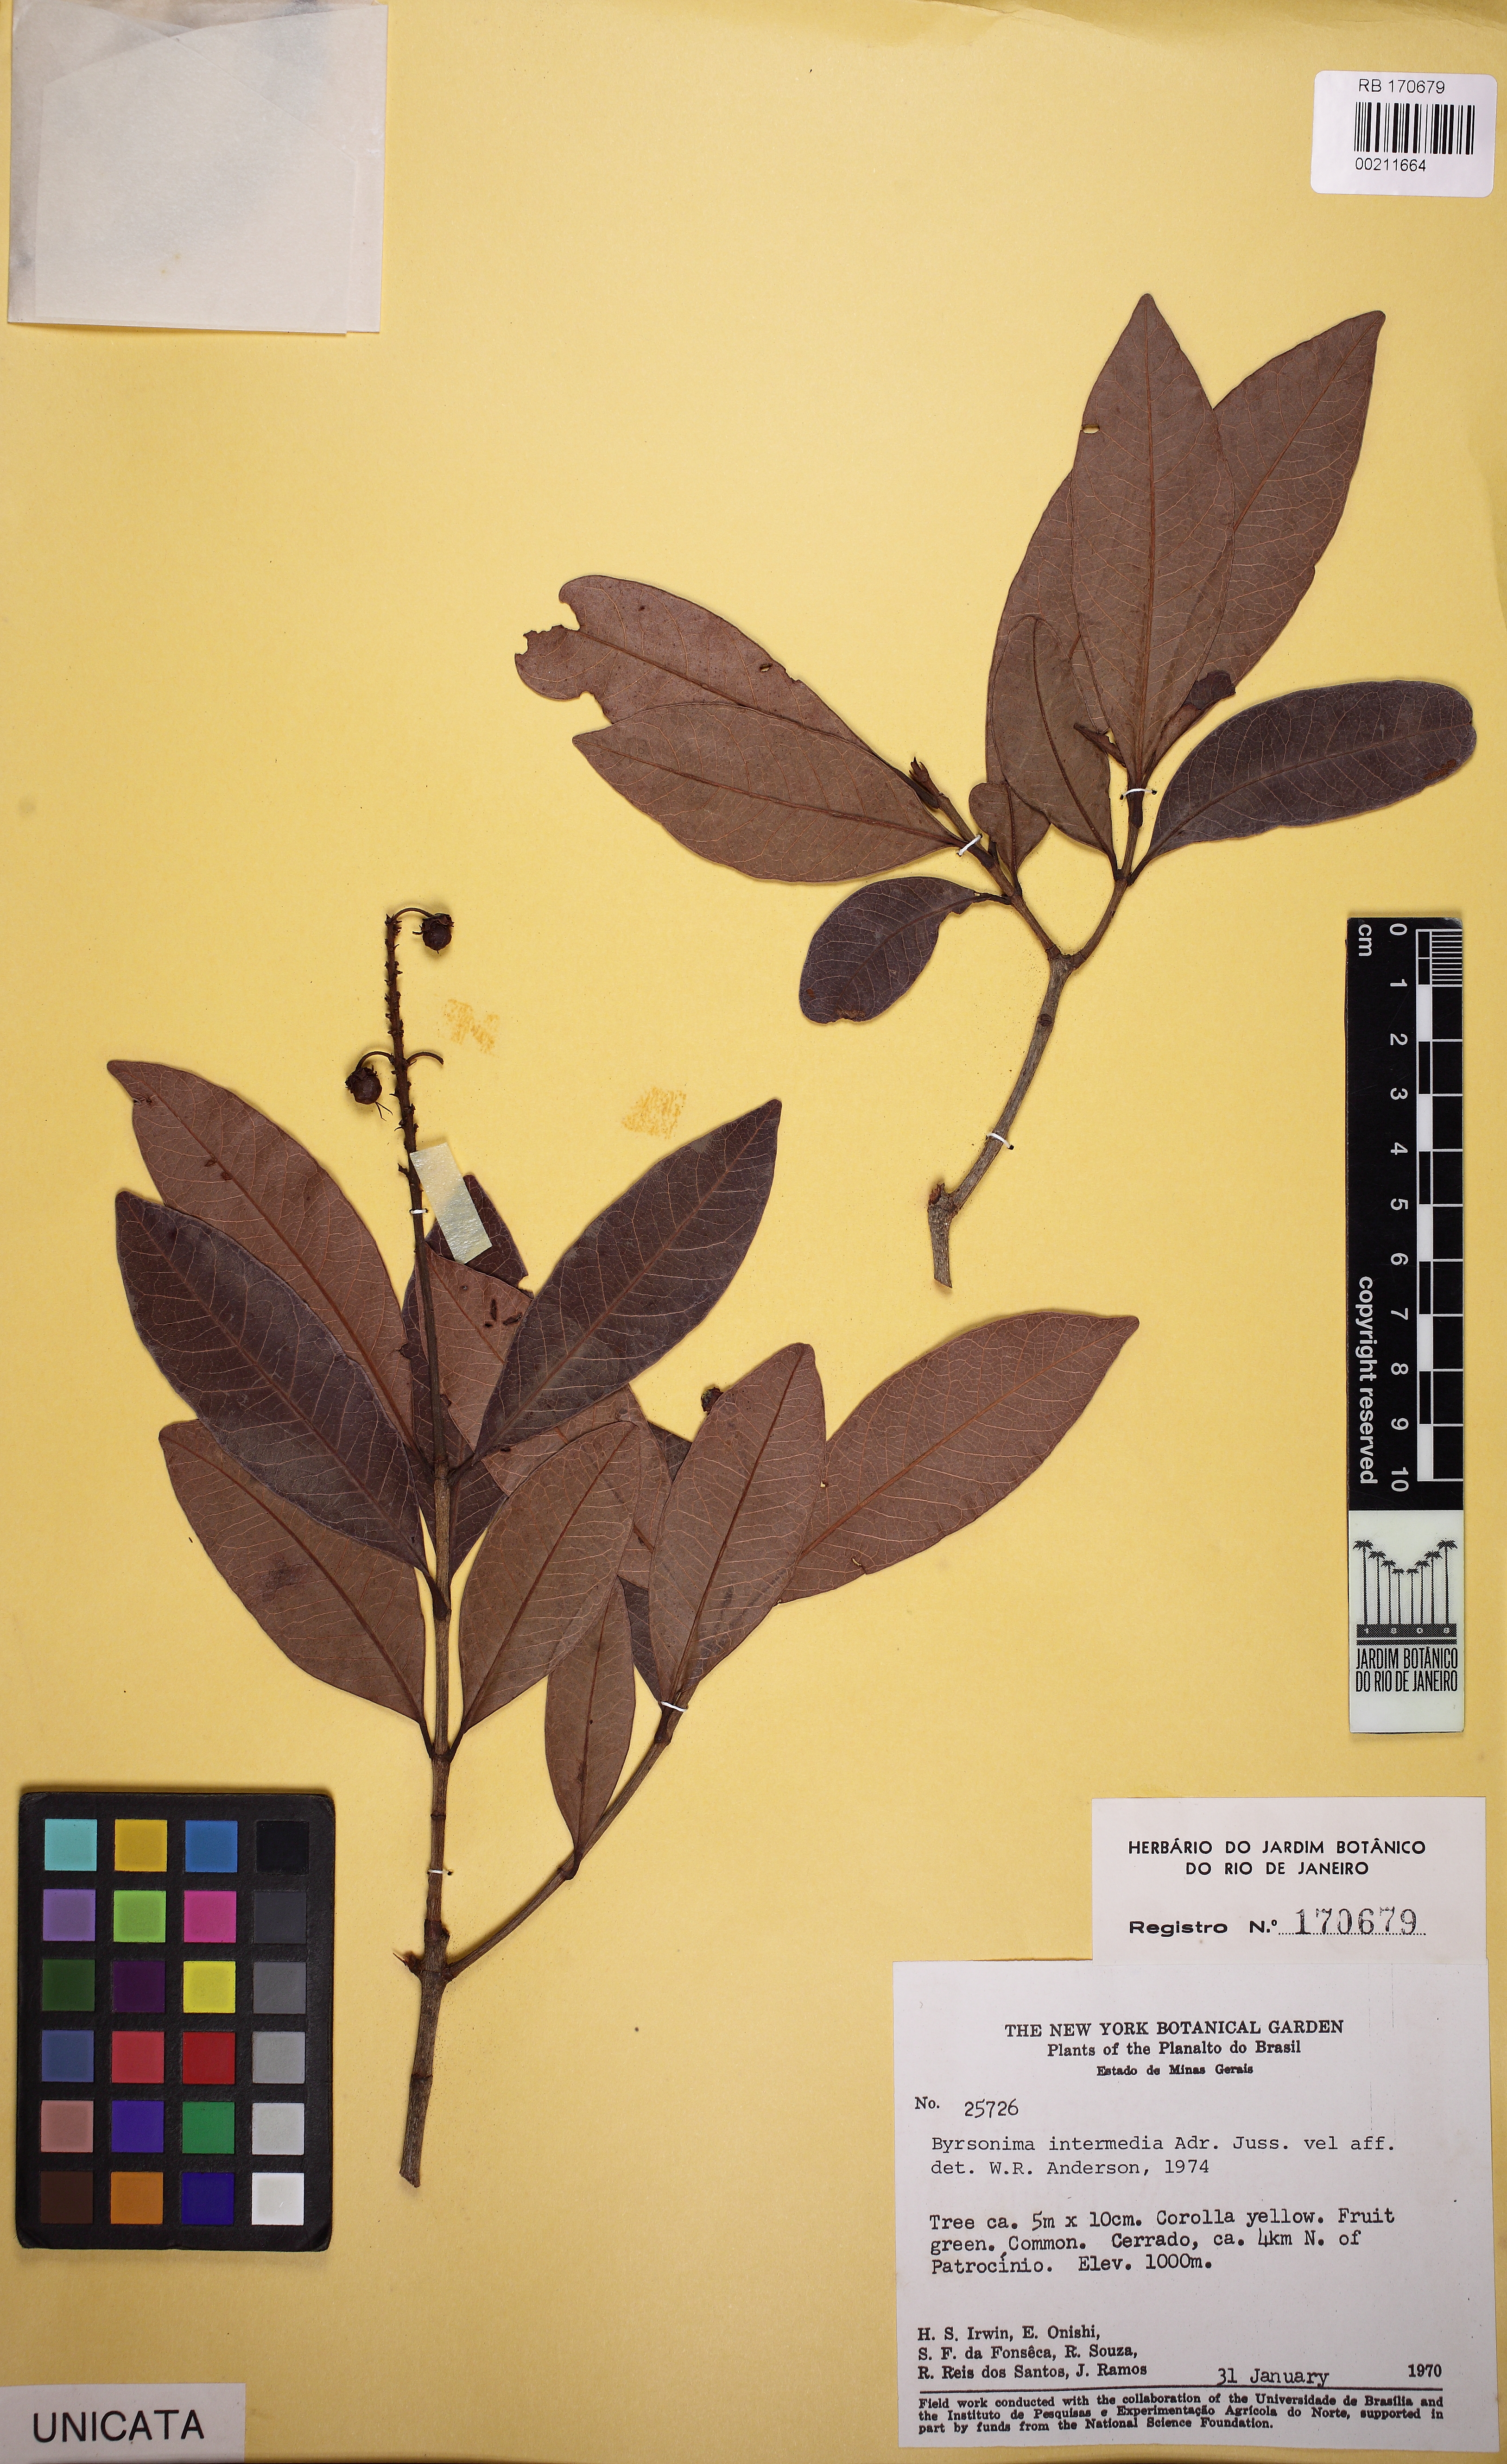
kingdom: Plantae
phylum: Tracheophyta
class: Magnoliopsida
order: Malpighiales
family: Malpighiaceae
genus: Byrsonima
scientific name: Byrsonima intermedia
